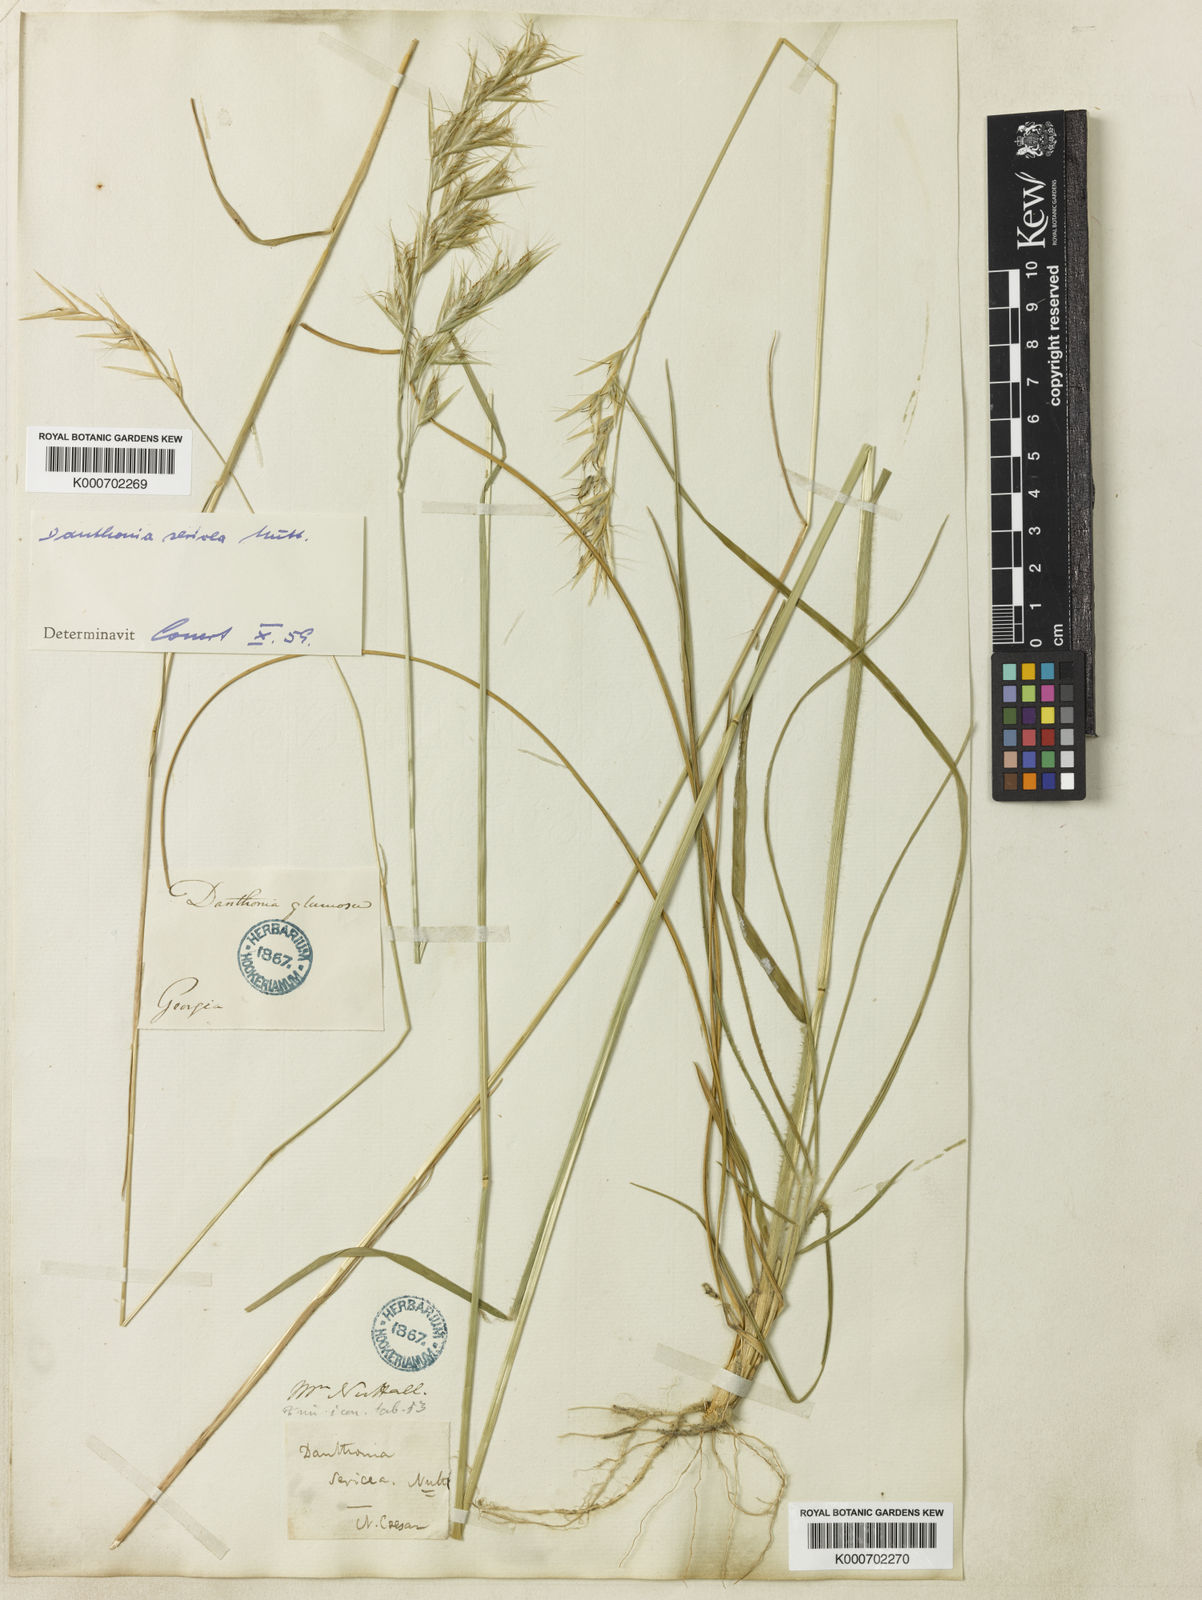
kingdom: Plantae
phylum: Tracheophyta
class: Liliopsida
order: Poales
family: Poaceae
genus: Danthonia
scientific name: Danthonia sericea
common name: Downy danthonia
